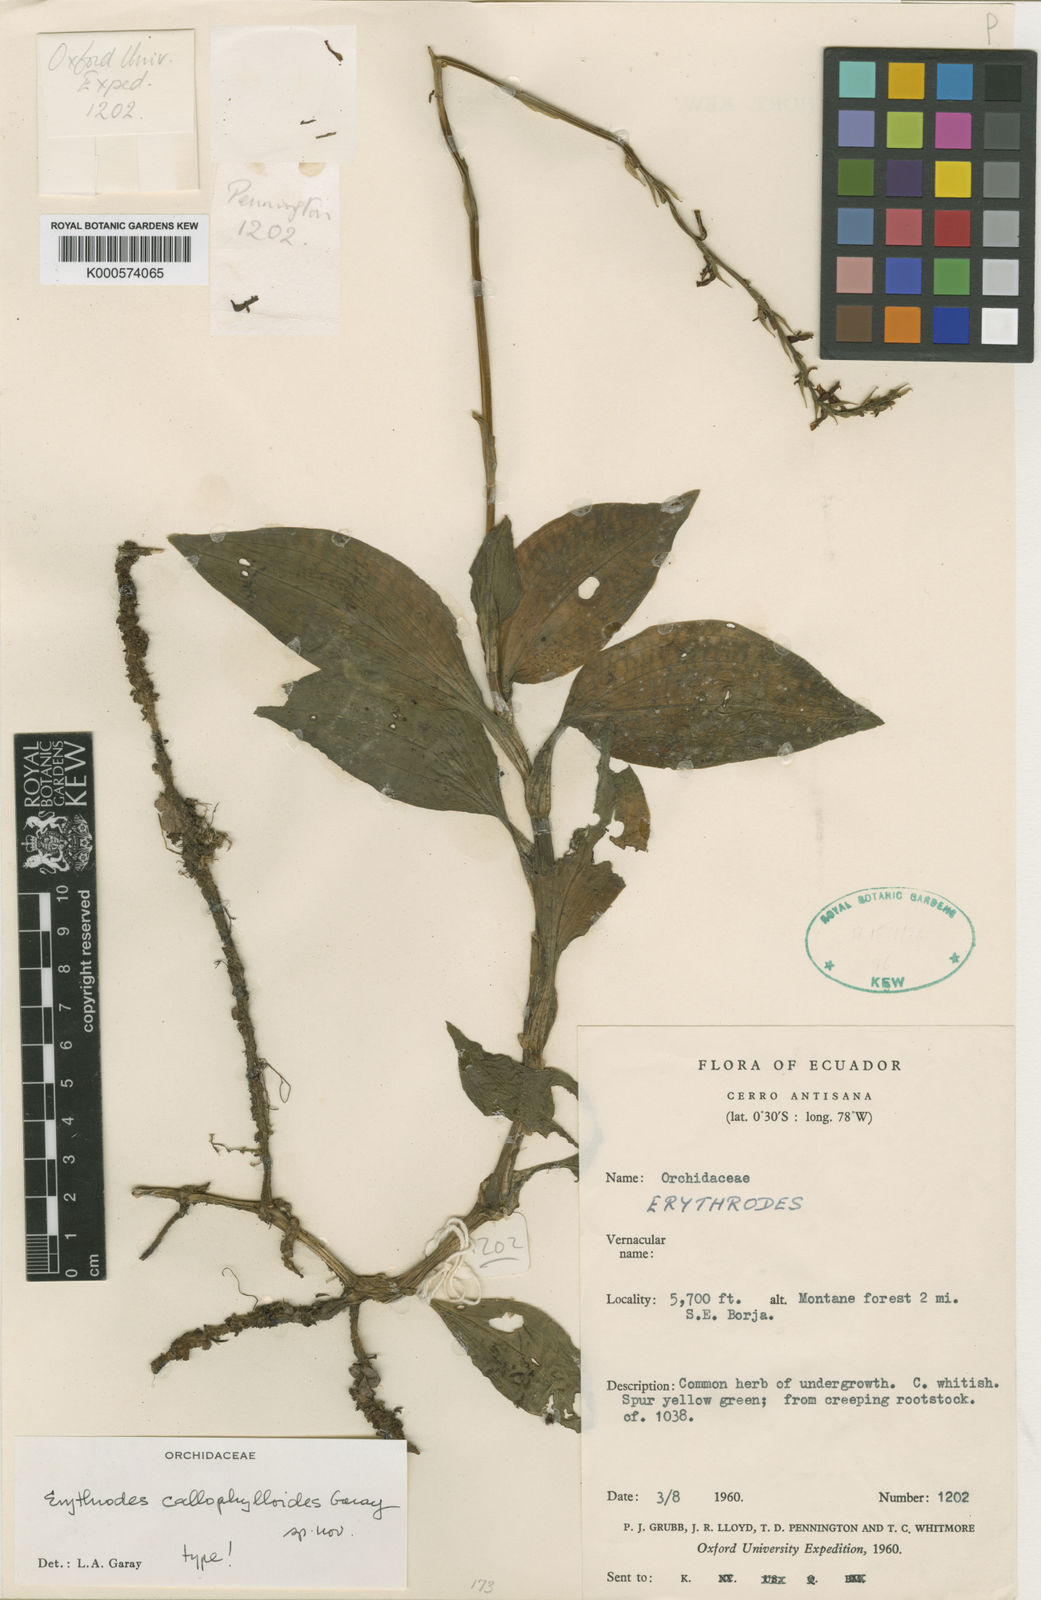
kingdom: Plantae
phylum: Tracheophyta
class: Liliopsida
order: Asparagales
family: Orchidaceae
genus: Microchilus
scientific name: Microchilus callophylloides
